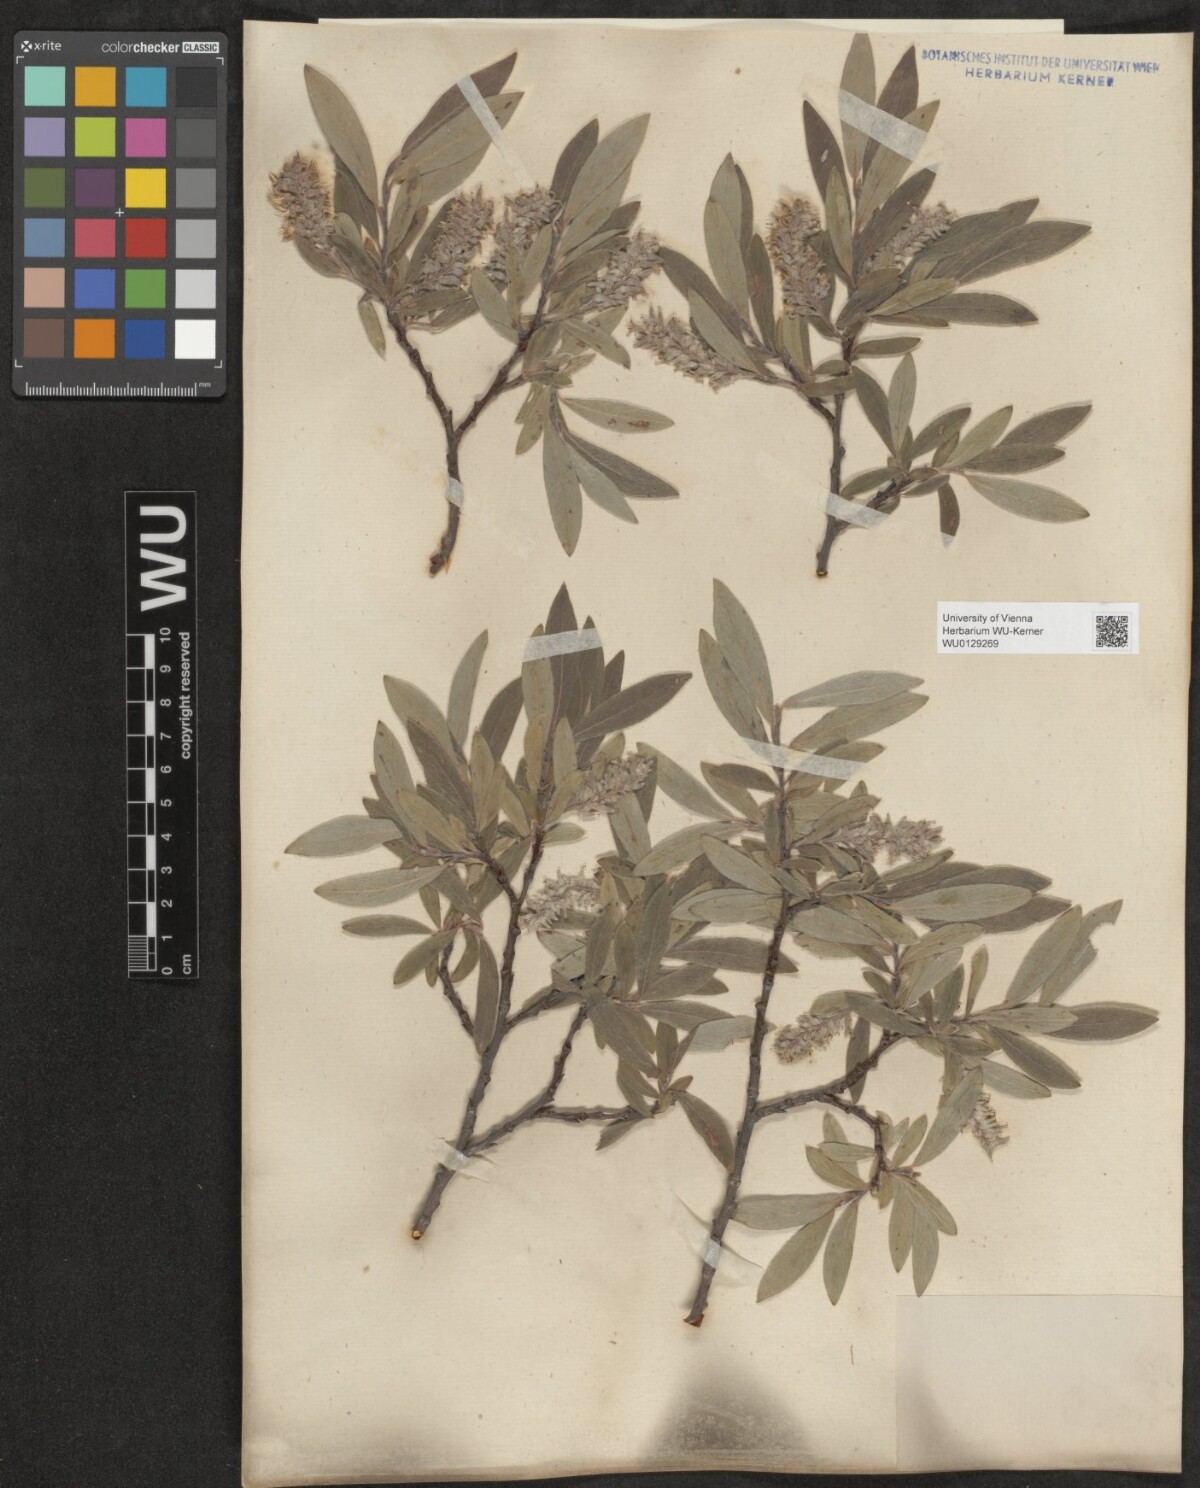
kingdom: Plantae
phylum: Tracheophyta
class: Magnoliopsida
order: Malpighiales
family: Salicaceae
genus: Salix
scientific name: Salix glauca
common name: Glaucous willow
